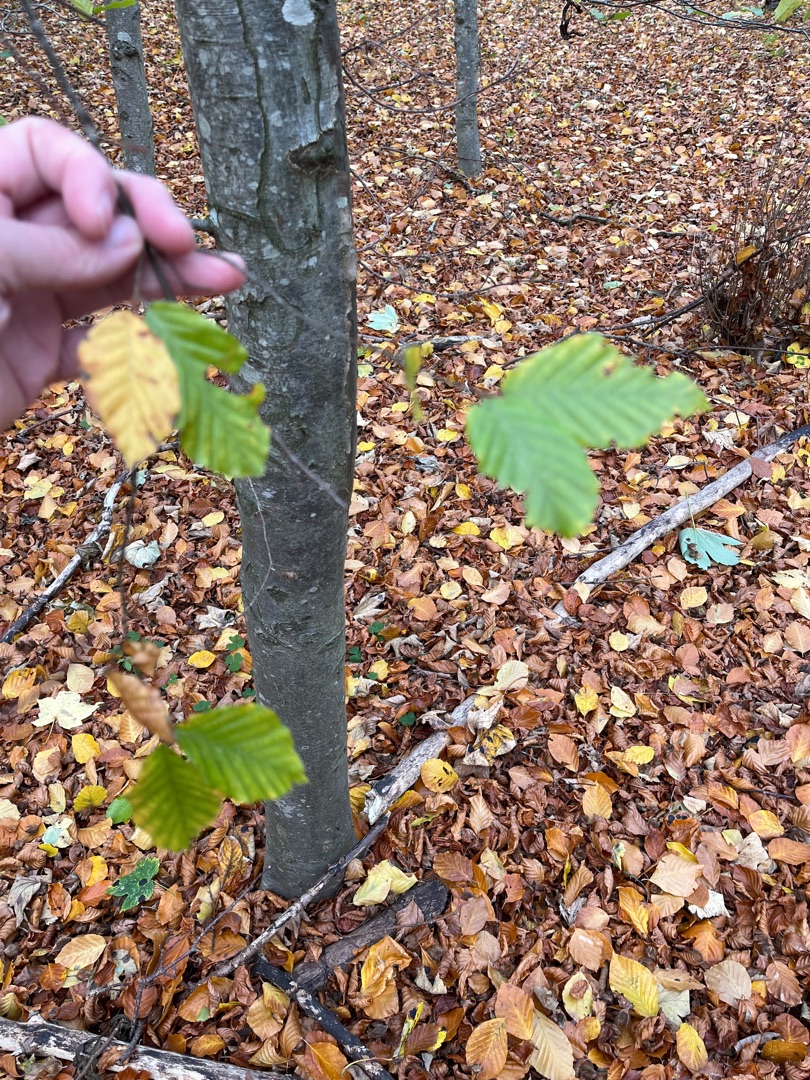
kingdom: Plantae
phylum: Tracheophyta
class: Magnoliopsida
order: Fagales
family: Fagaceae
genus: Fagus
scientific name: Fagus sylvatica
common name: Bøg
